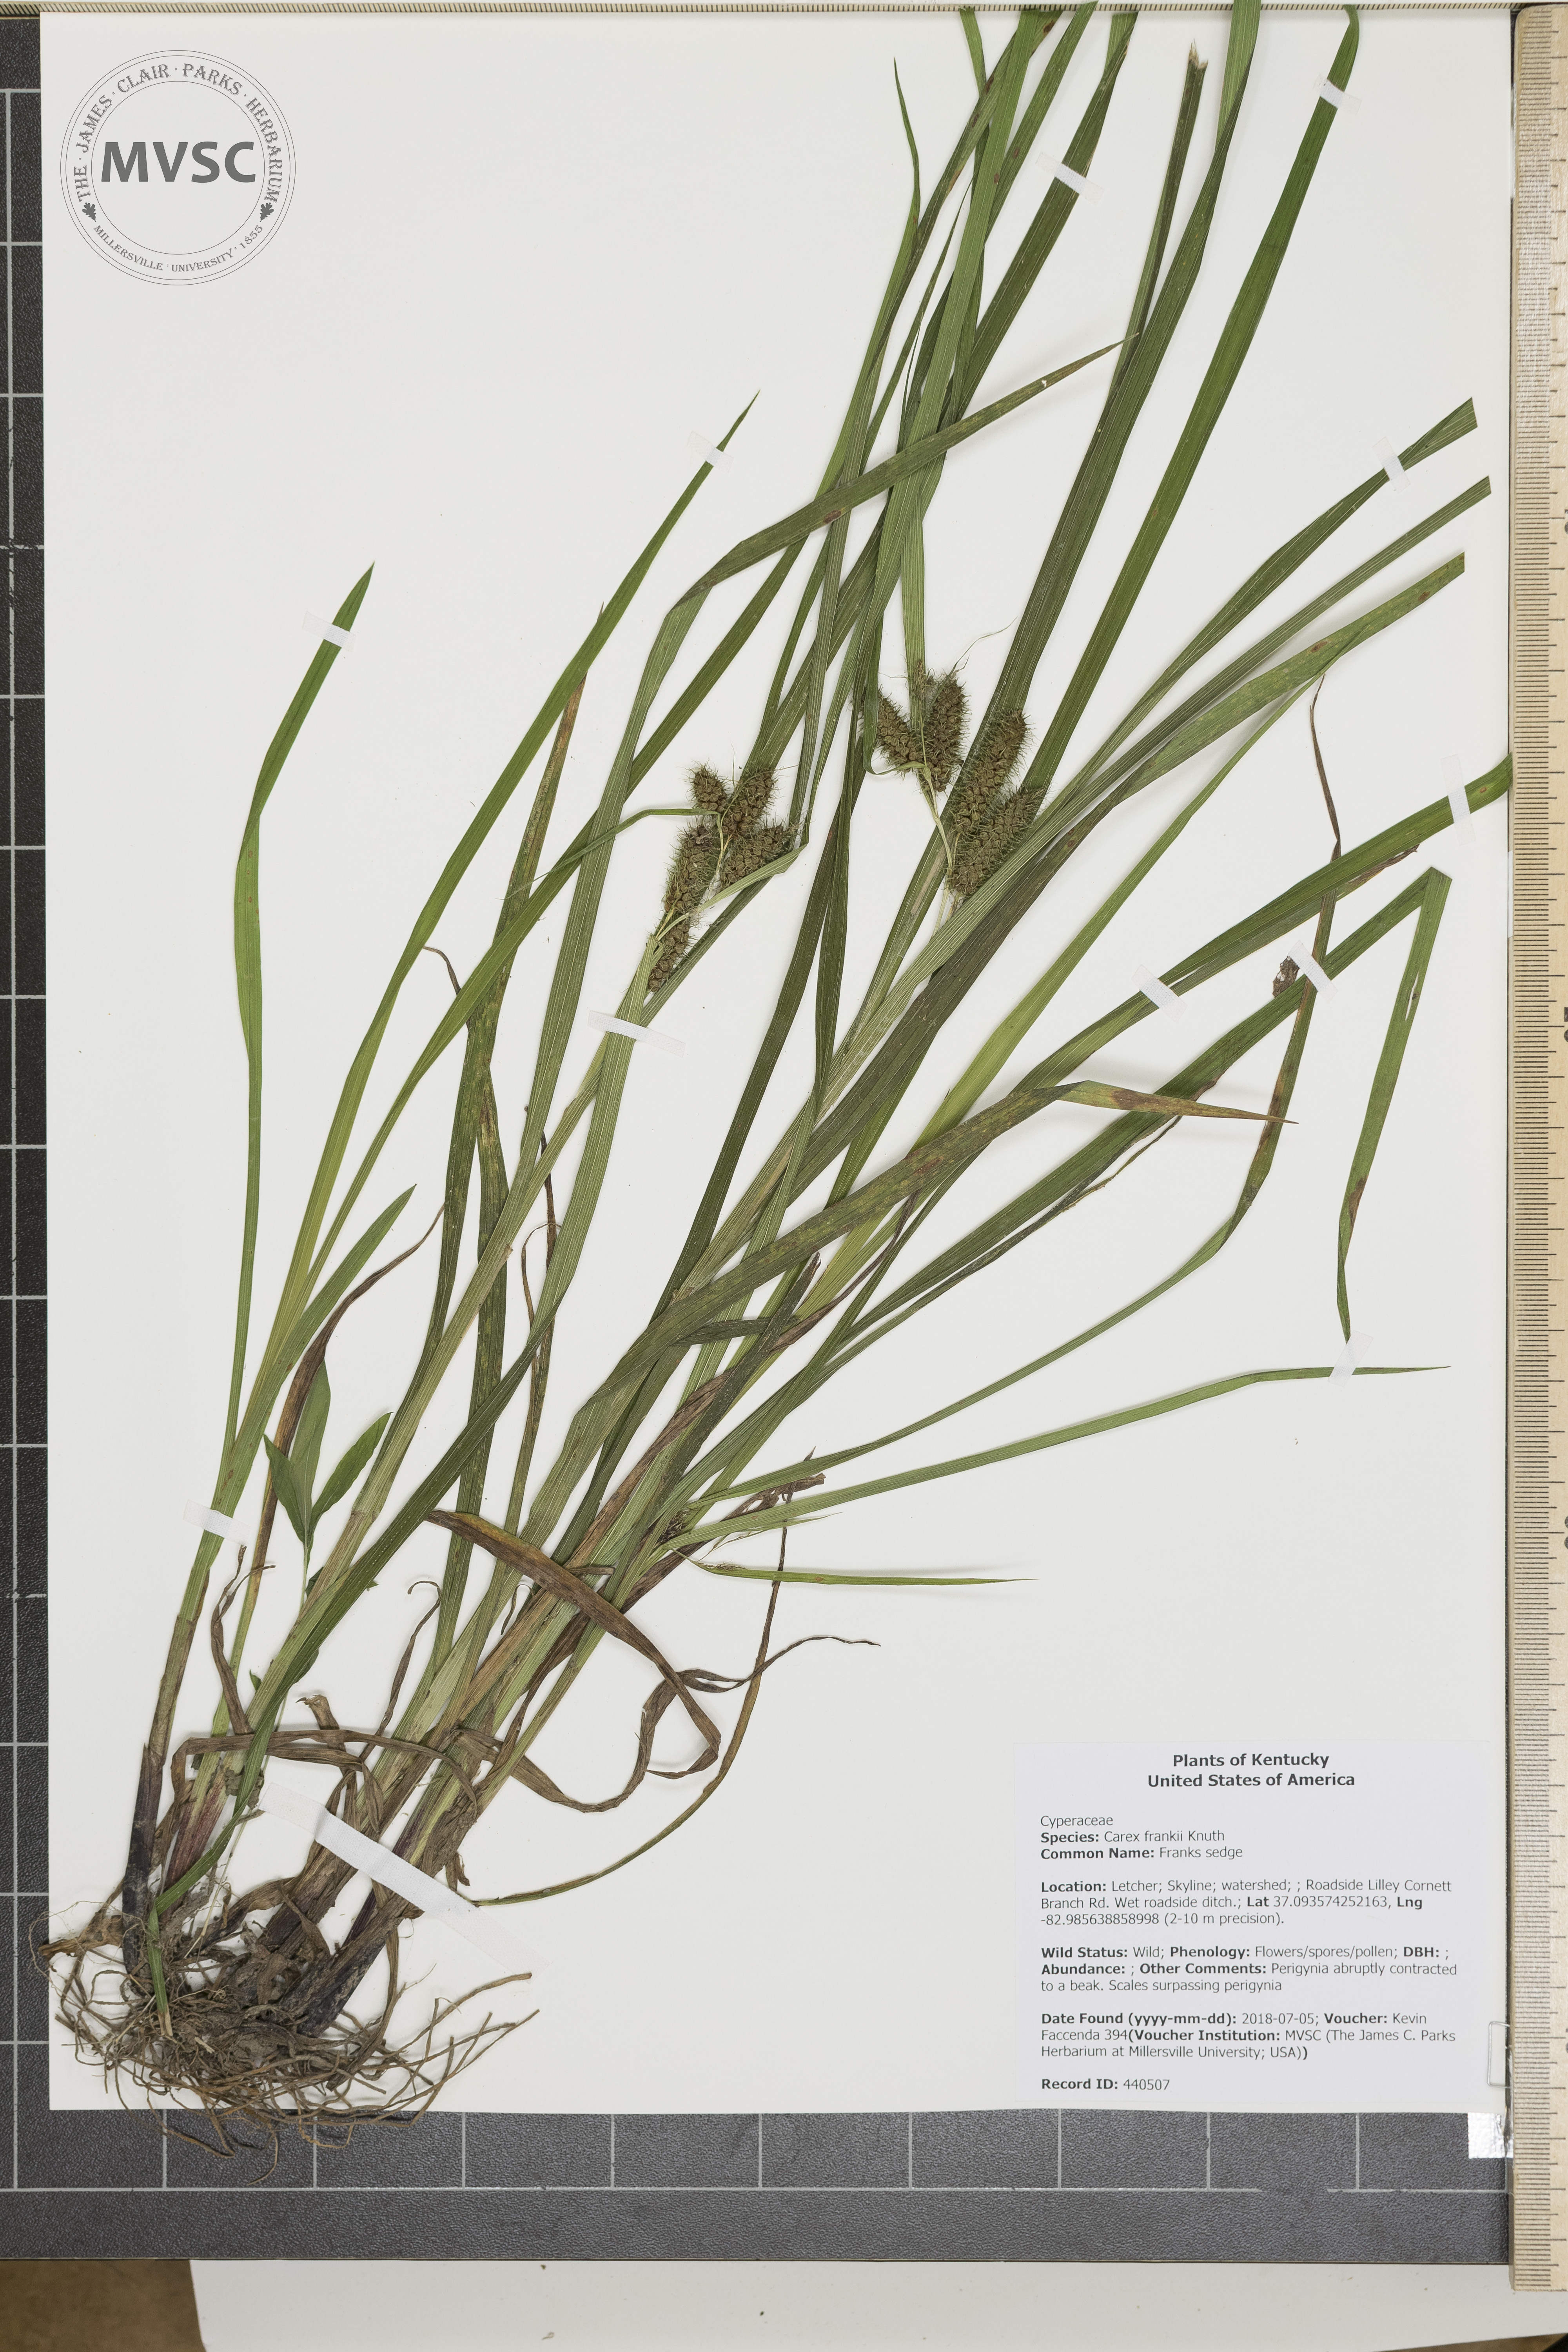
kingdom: Plantae
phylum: Tracheophyta
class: Liliopsida
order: Poales
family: Cyperaceae
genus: Carex
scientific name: Carex frankii
